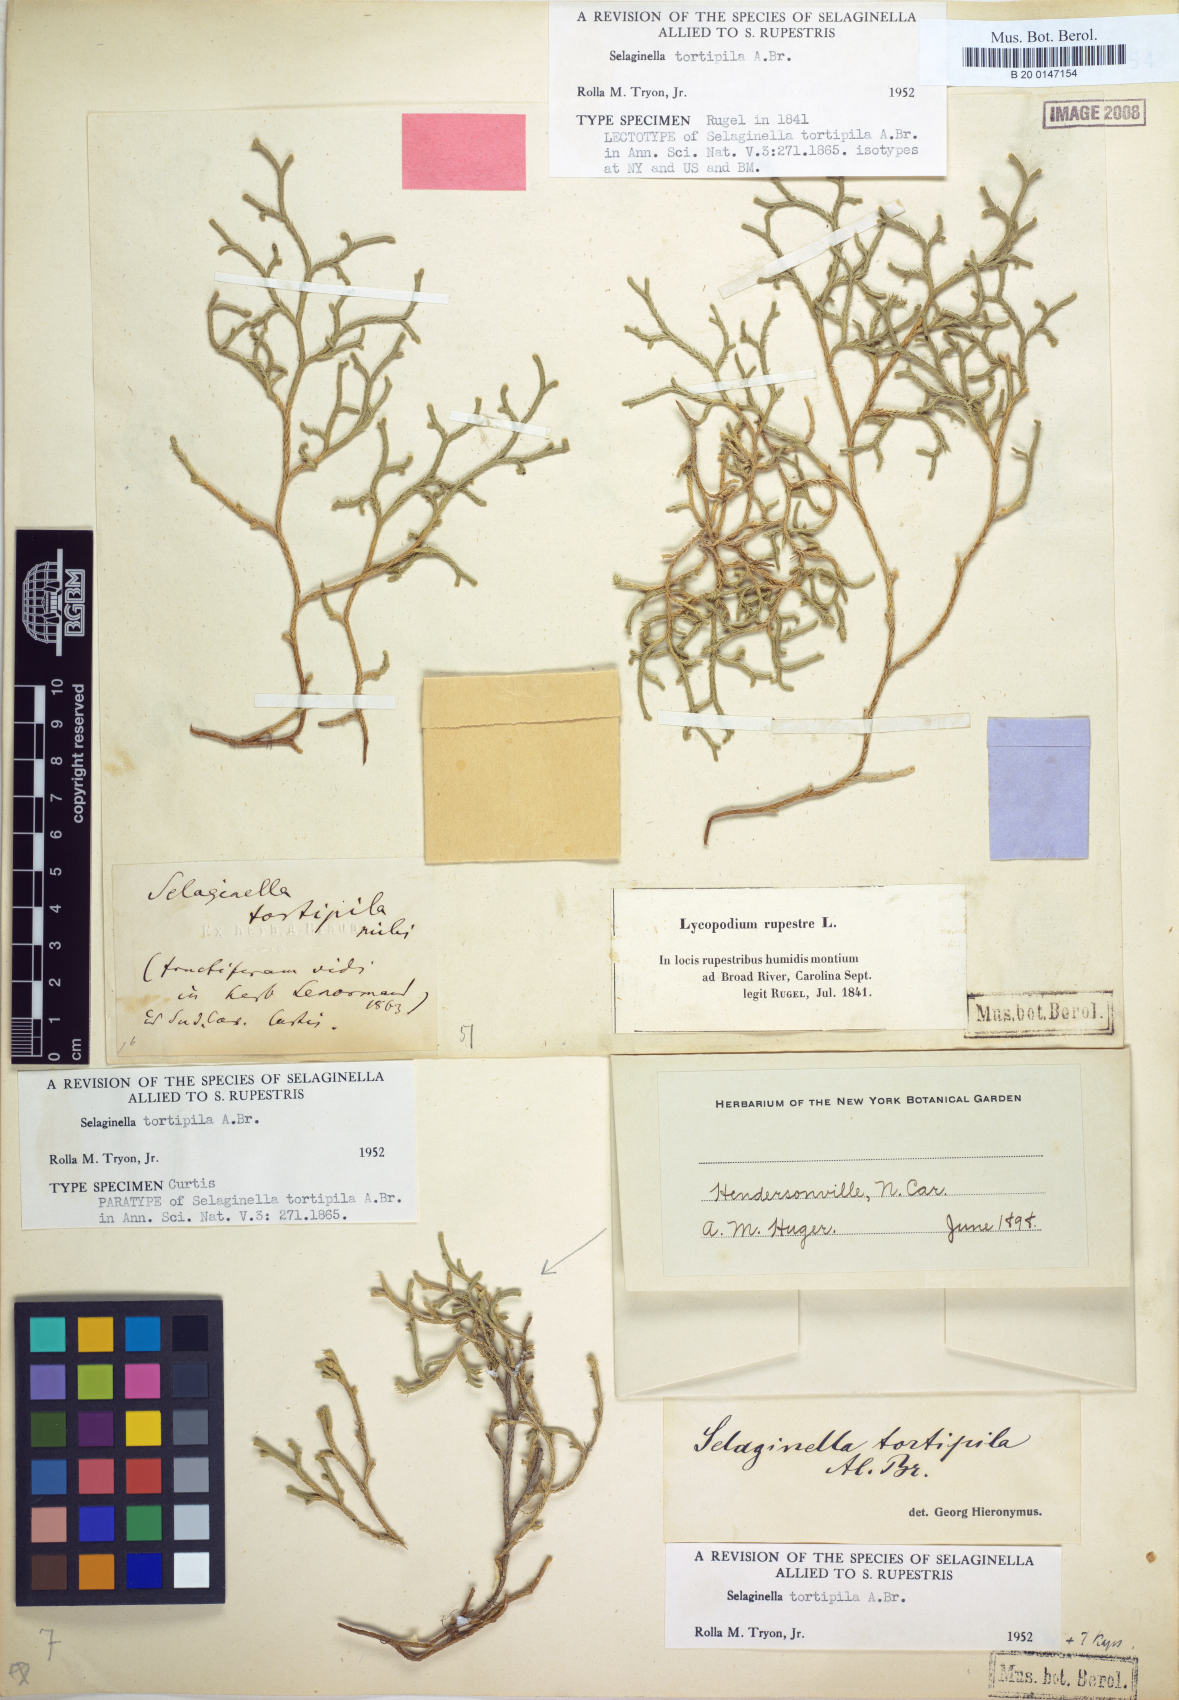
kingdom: Plantae
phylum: Tracheophyta
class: Lycopodiopsida
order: Selaginellales
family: Selaginellaceae
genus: Selaginella
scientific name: Selaginella tortipila
